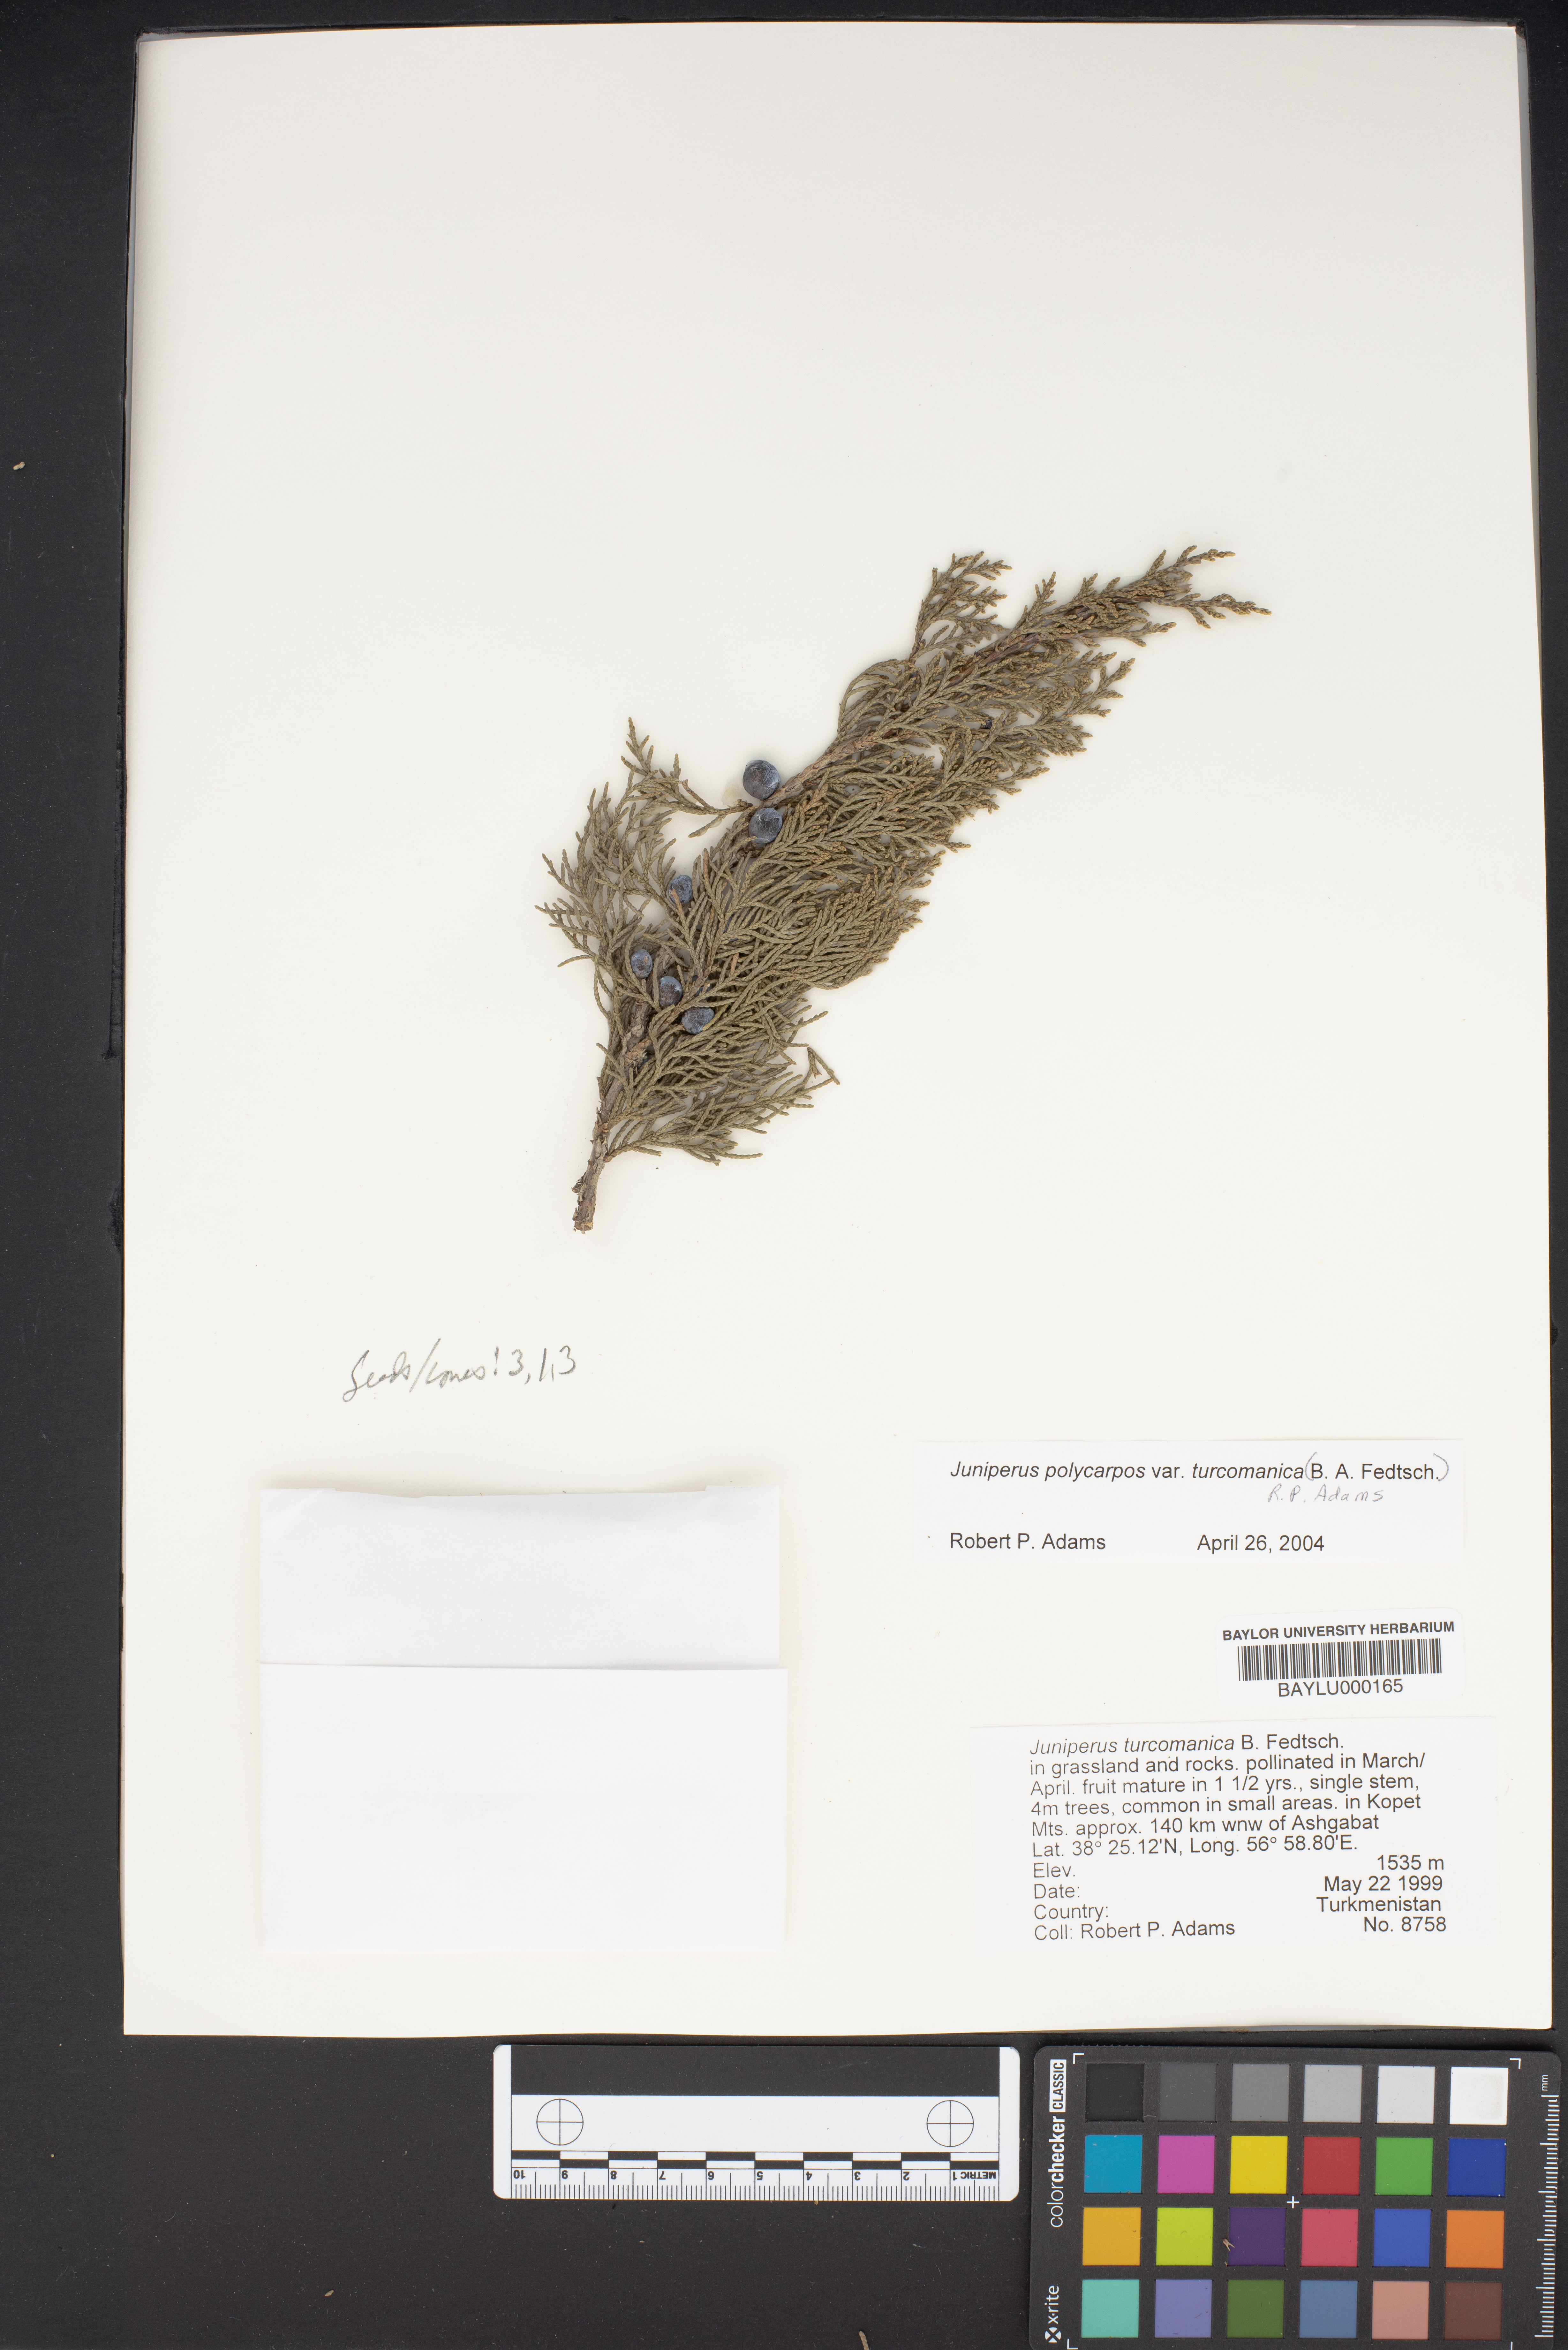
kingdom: Plantae
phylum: Tracheophyta
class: Pinopsida
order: Pinales
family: Cupressaceae
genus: Juniperus
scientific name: Juniperus excelsa
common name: Crimean juniper
